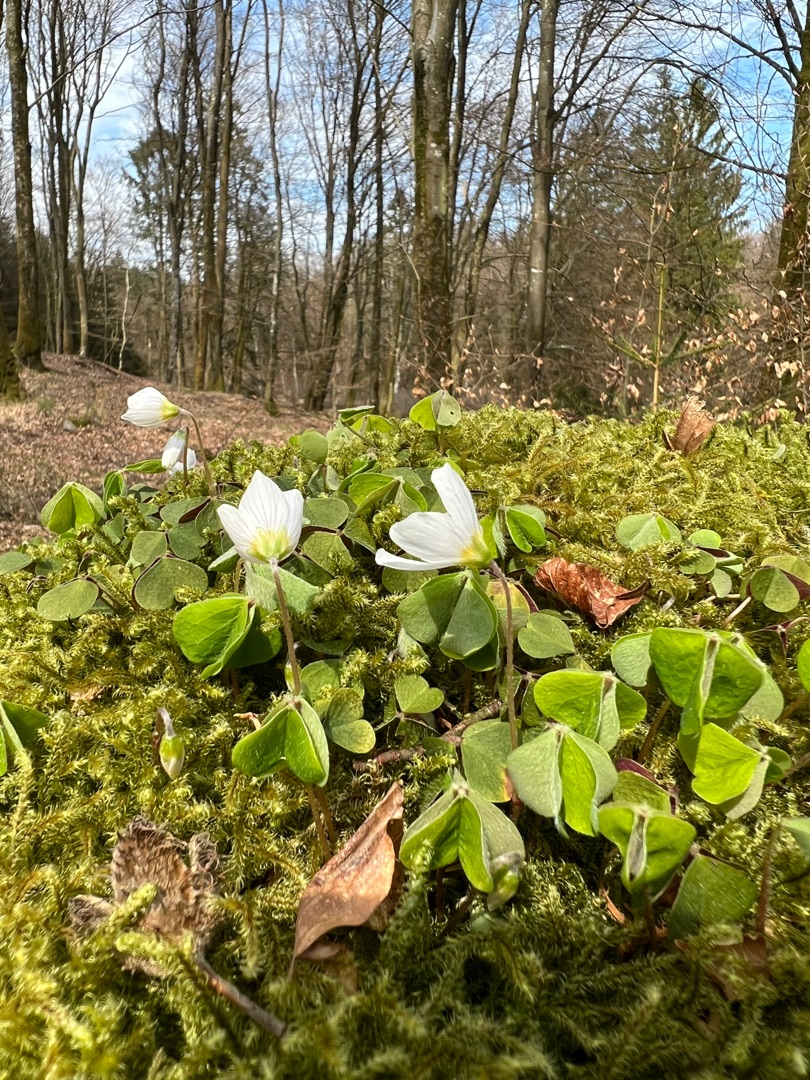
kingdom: Plantae
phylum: Tracheophyta
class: Magnoliopsida
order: Oxalidales
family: Oxalidaceae
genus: Oxalis
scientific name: Oxalis acetosella
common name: Skovsyre
